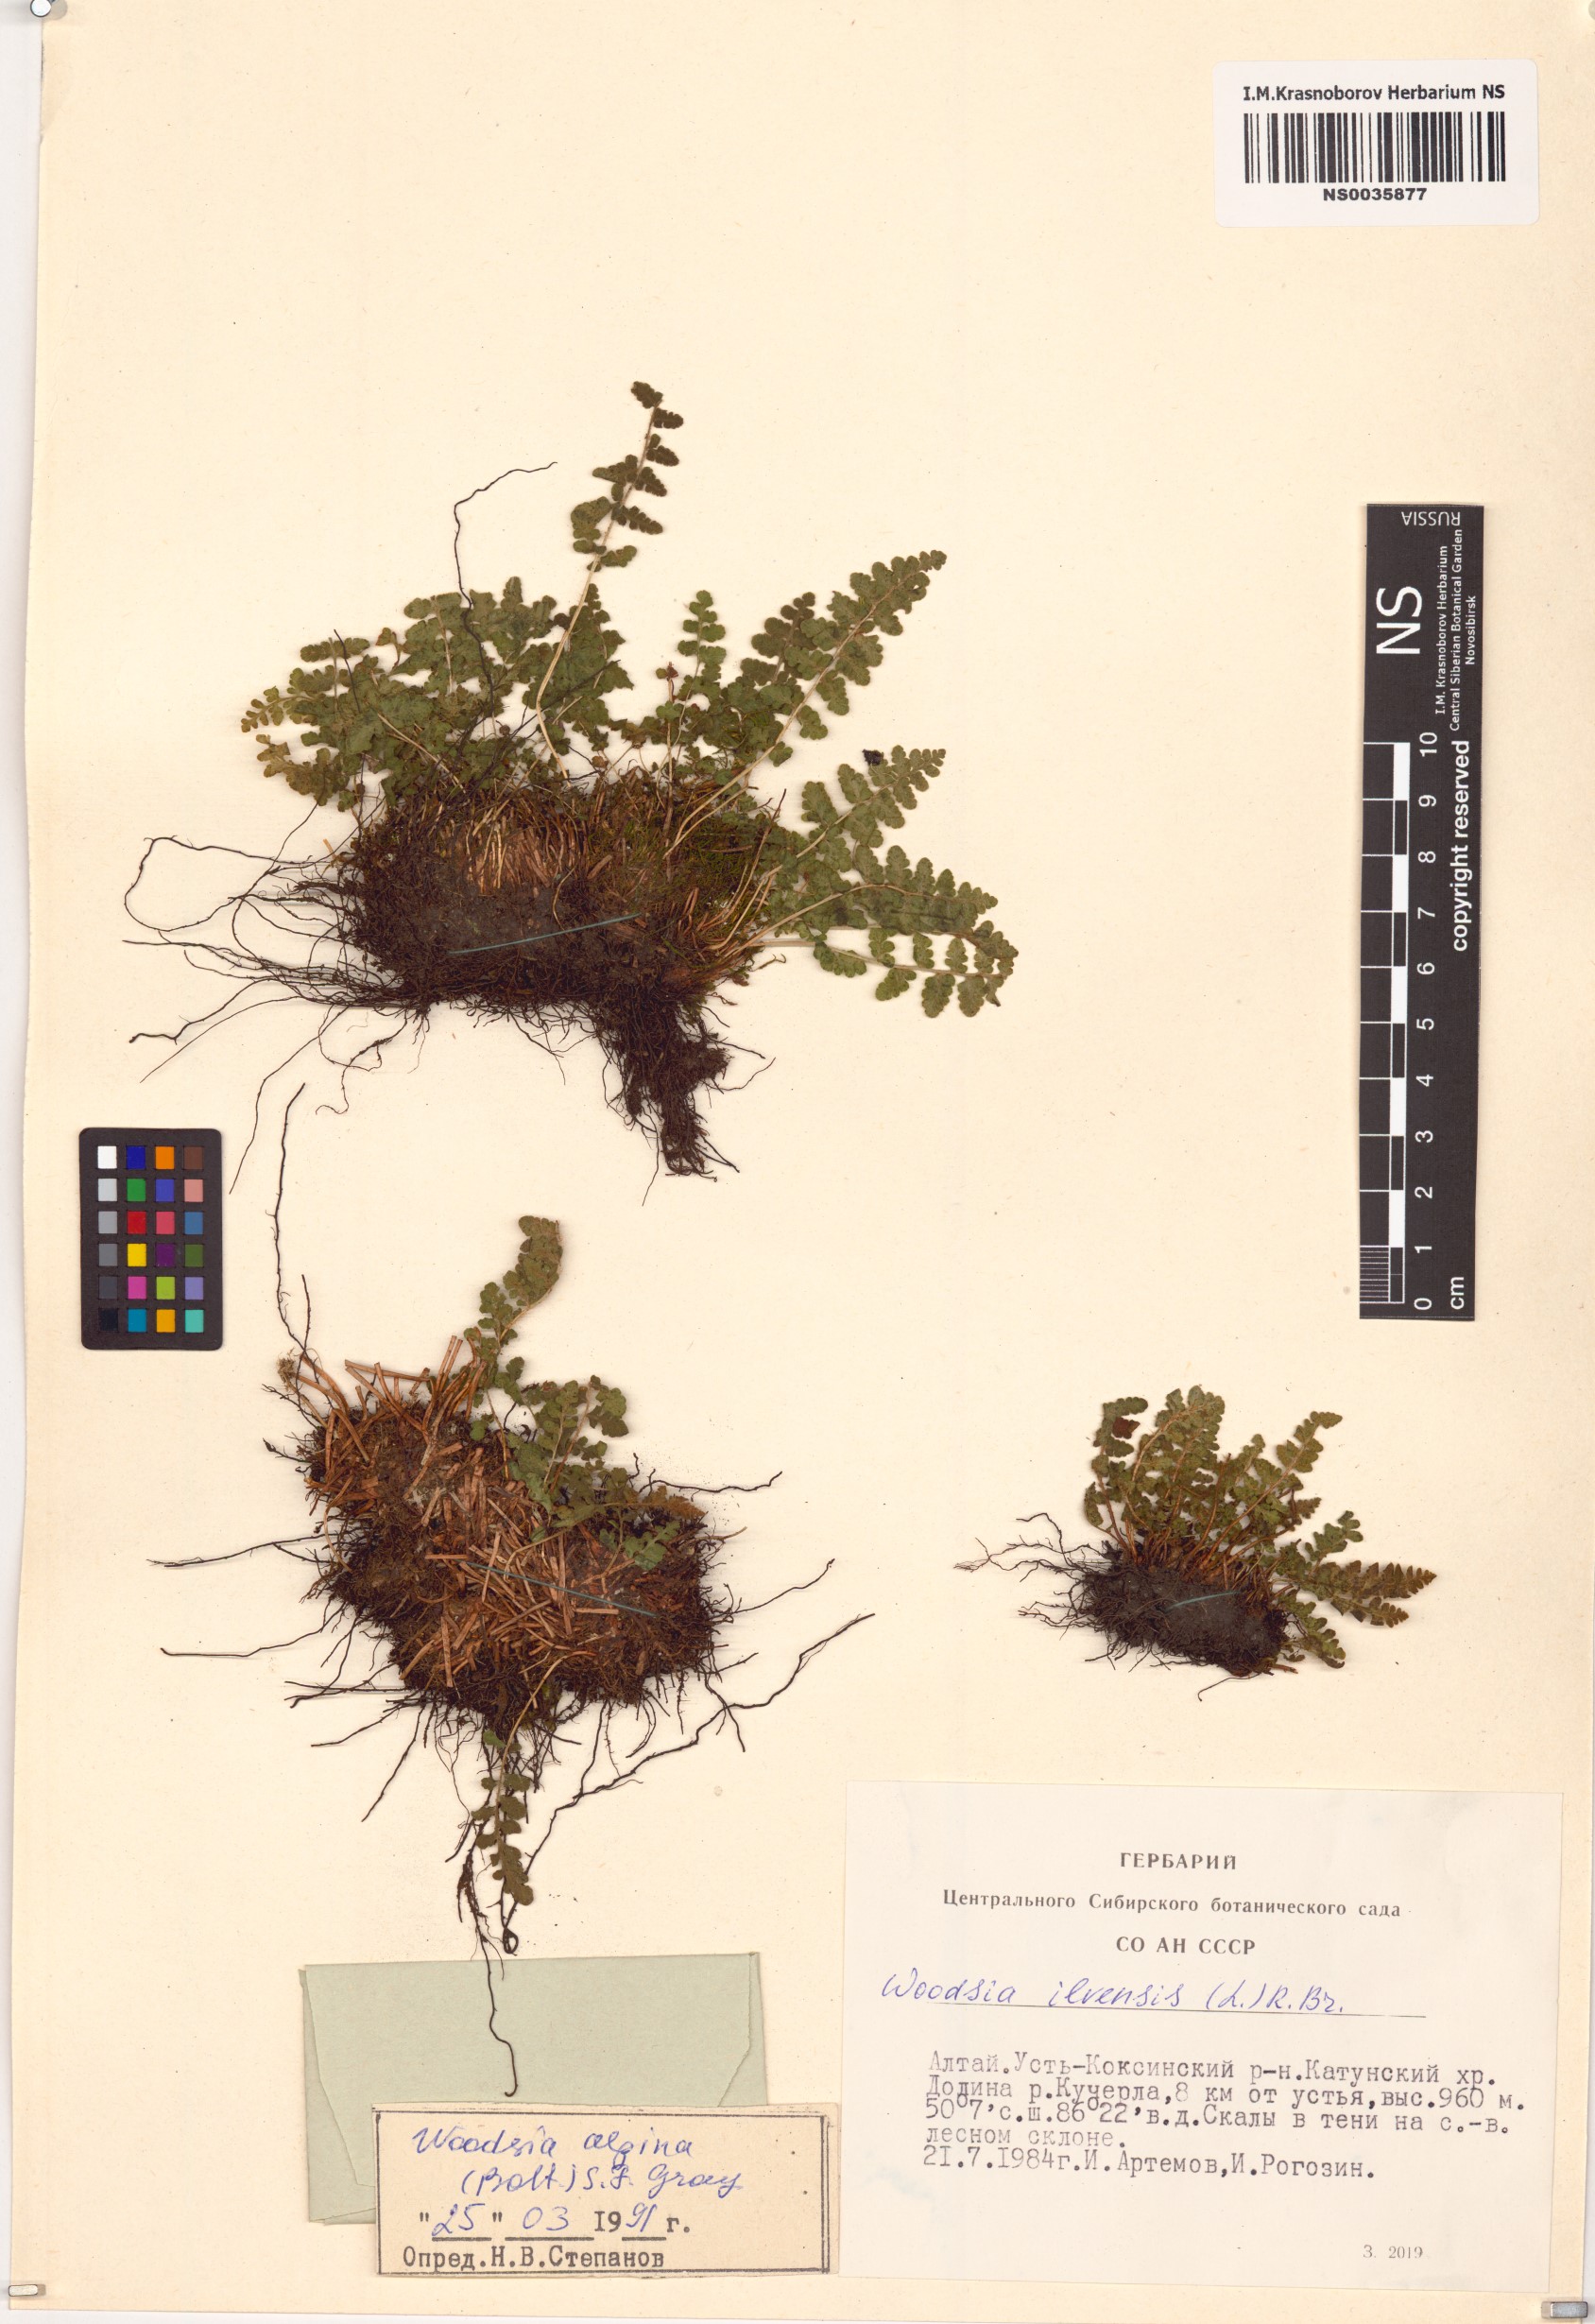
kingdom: Plantae
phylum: Tracheophyta
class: Polypodiopsida
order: Polypodiales
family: Woodsiaceae
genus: Woodsia
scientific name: Woodsia ilvensis
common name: Fragrant woodsia
